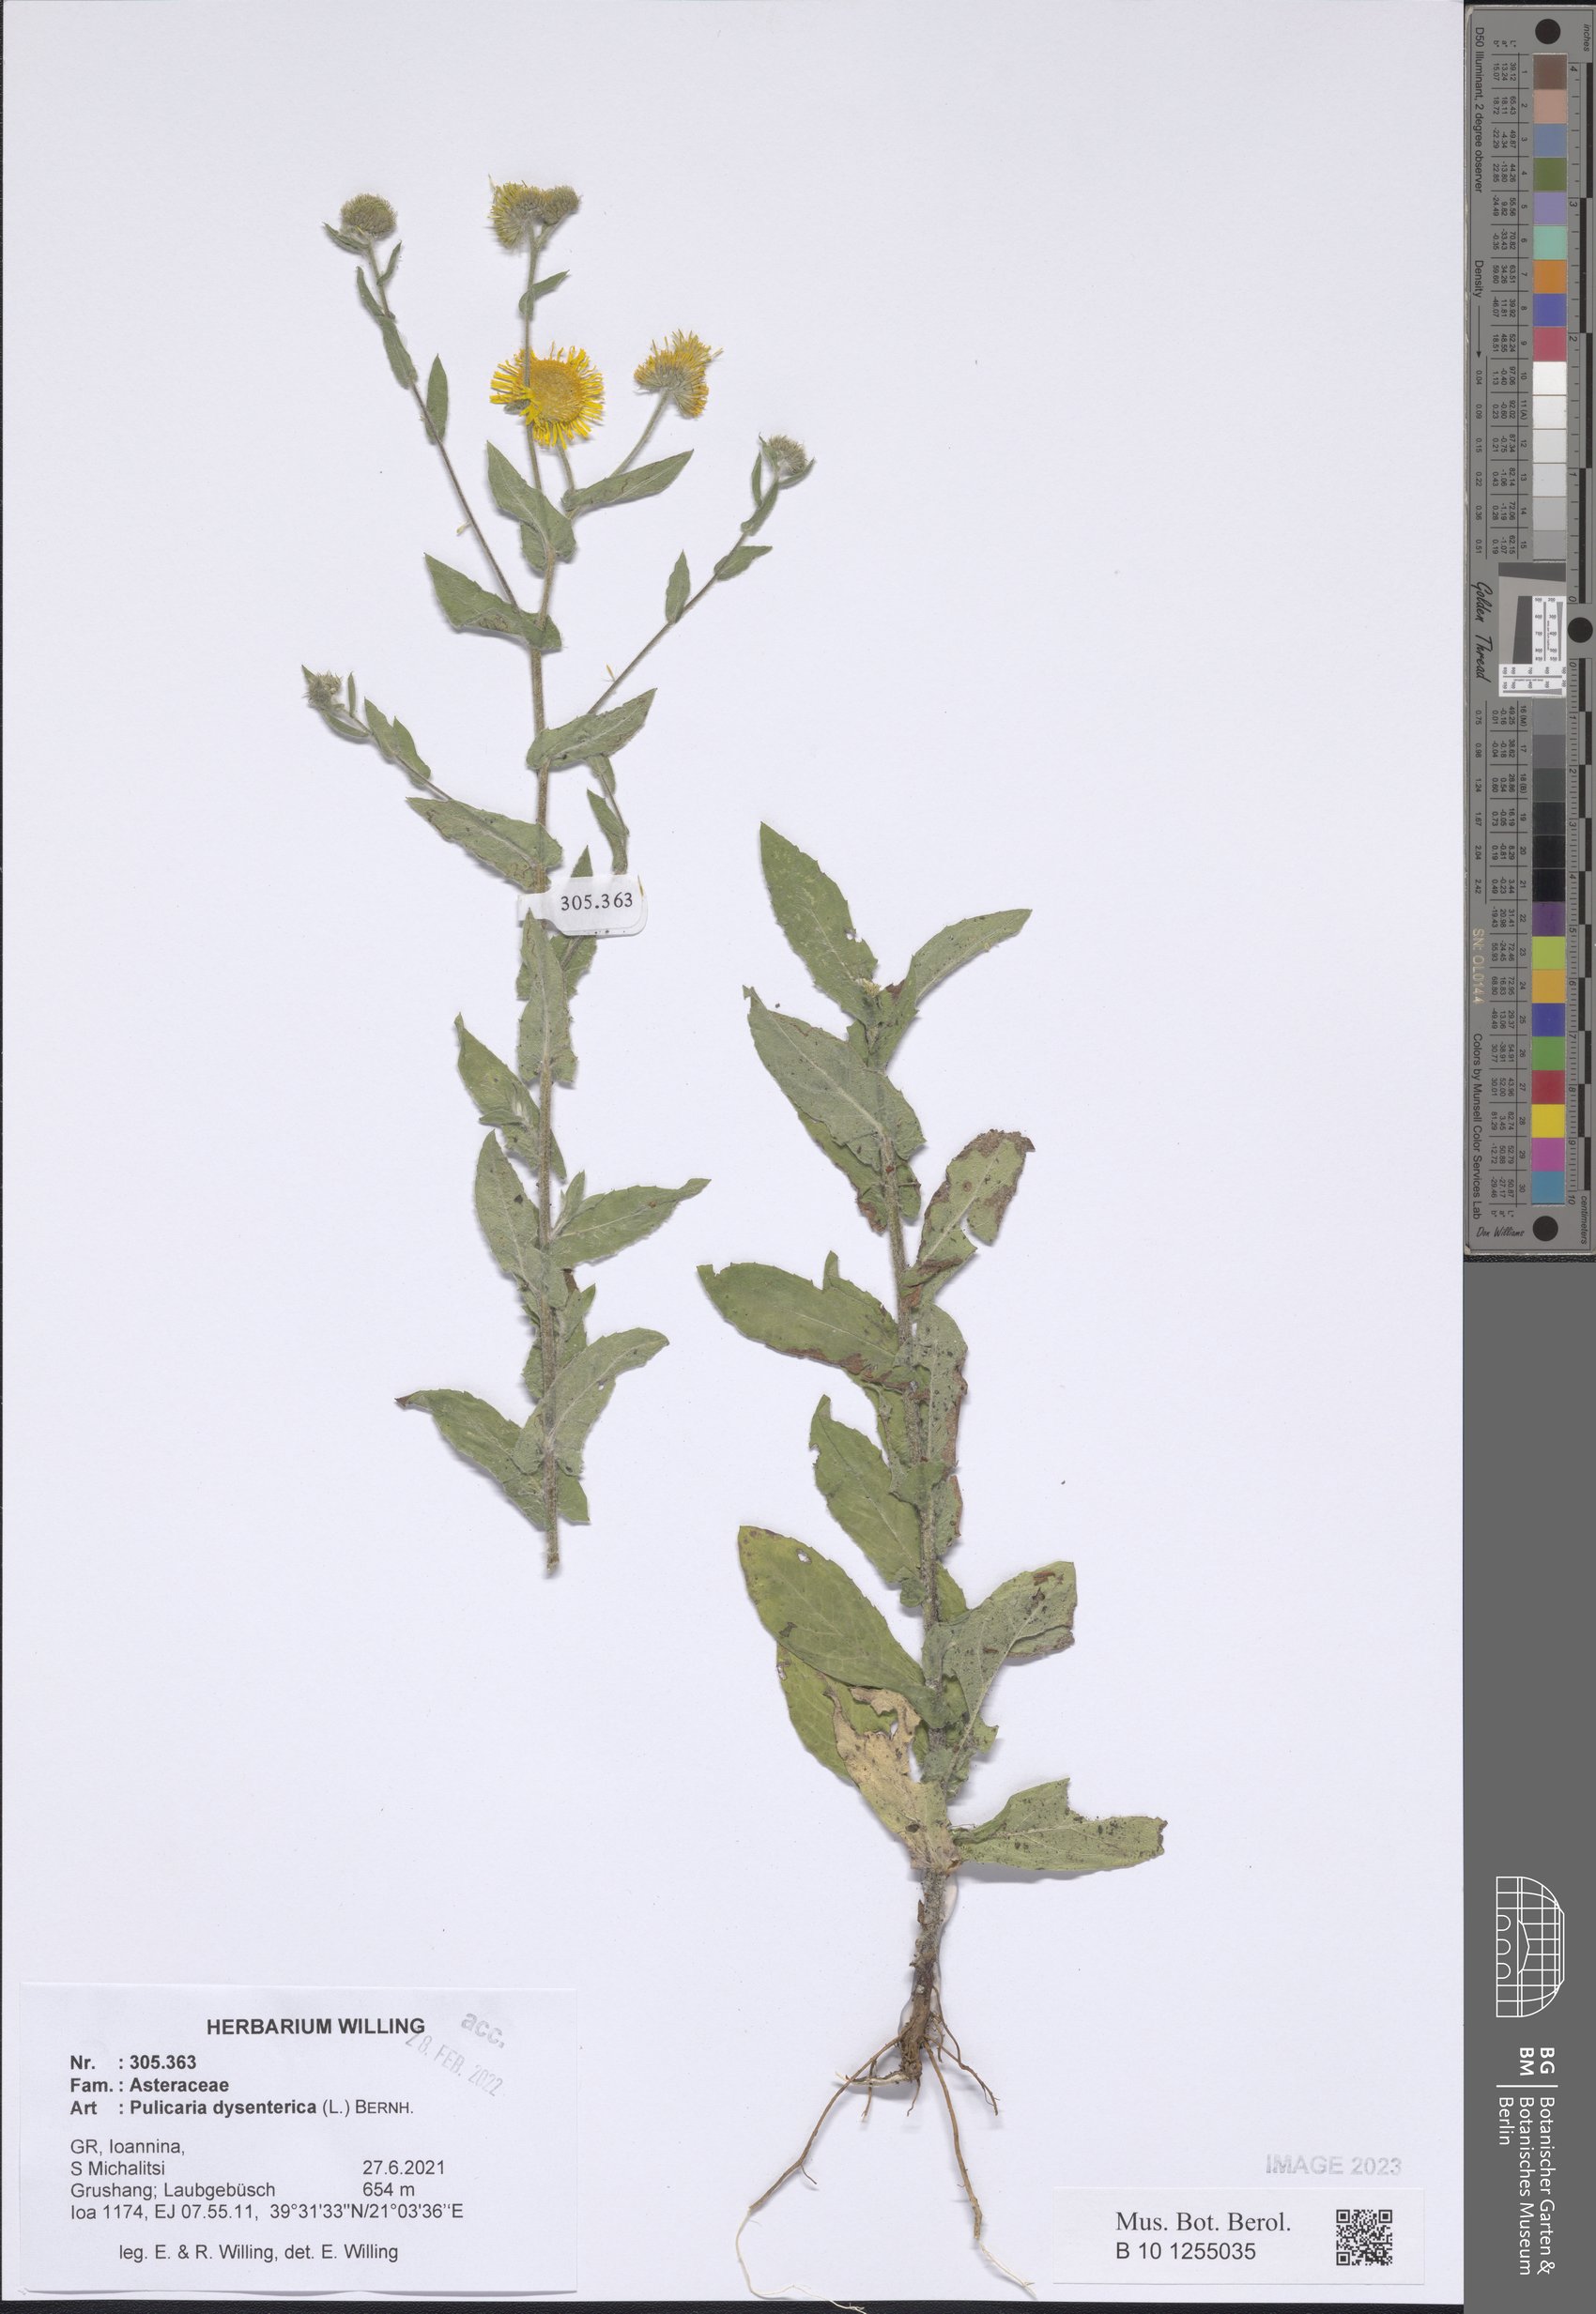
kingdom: Plantae
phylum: Tracheophyta
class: Magnoliopsida
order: Asterales
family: Asteraceae
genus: Pulicaria
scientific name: Pulicaria dysenterica
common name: Common fleabane
